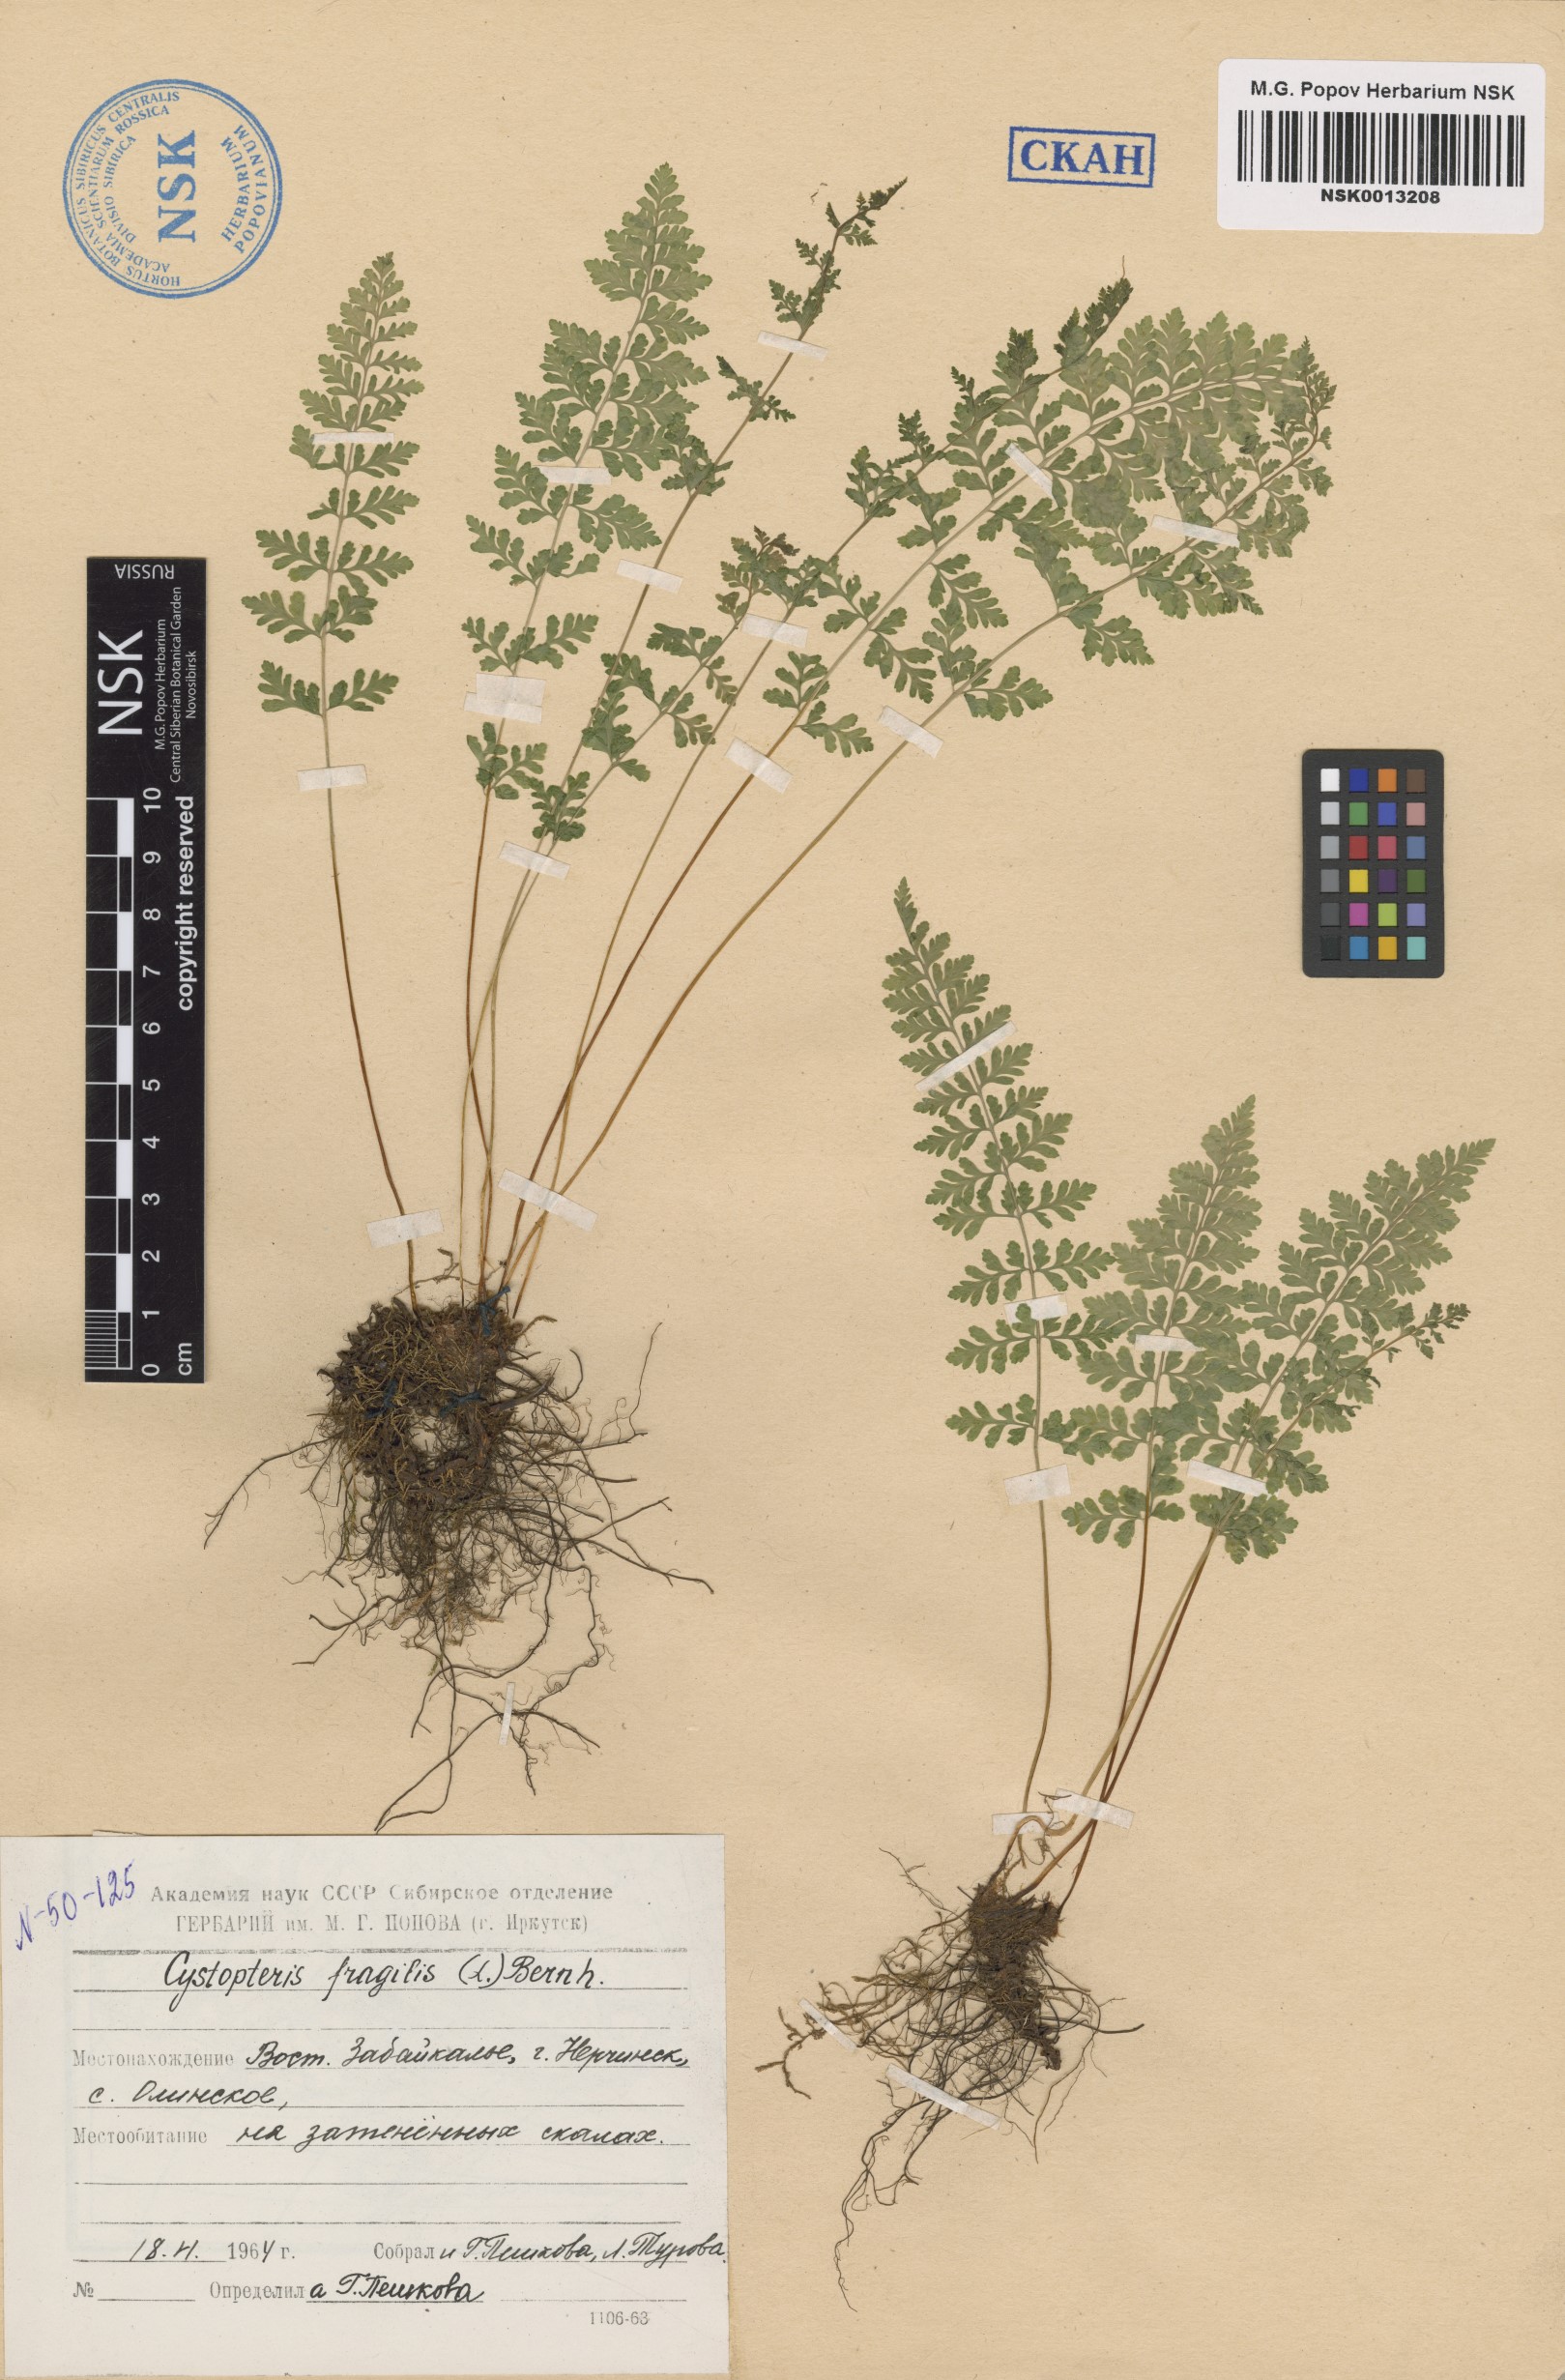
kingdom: Plantae
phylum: Tracheophyta
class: Polypodiopsida
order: Polypodiales
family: Cystopteridaceae
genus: Cystopteris
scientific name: Cystopteris fragilis
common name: Brittle bladder fern
